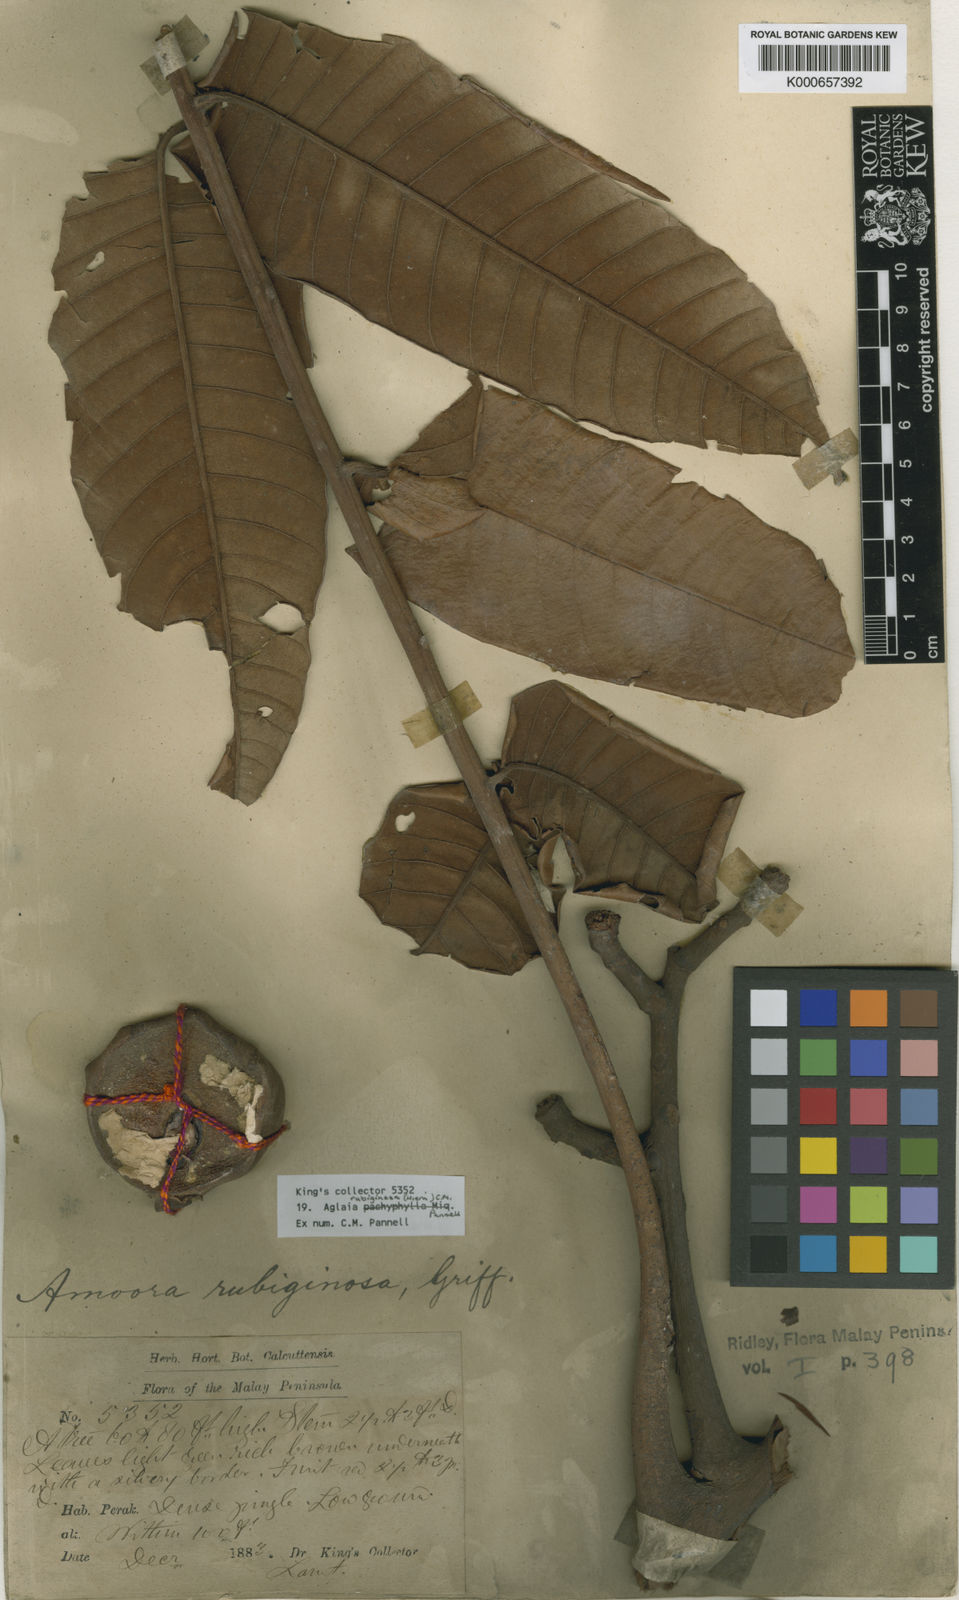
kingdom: Plantae
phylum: Tracheophyta
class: Magnoliopsida
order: Sapindales
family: Meliaceae
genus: Aglaia
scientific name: Aglaia rubiginosa
